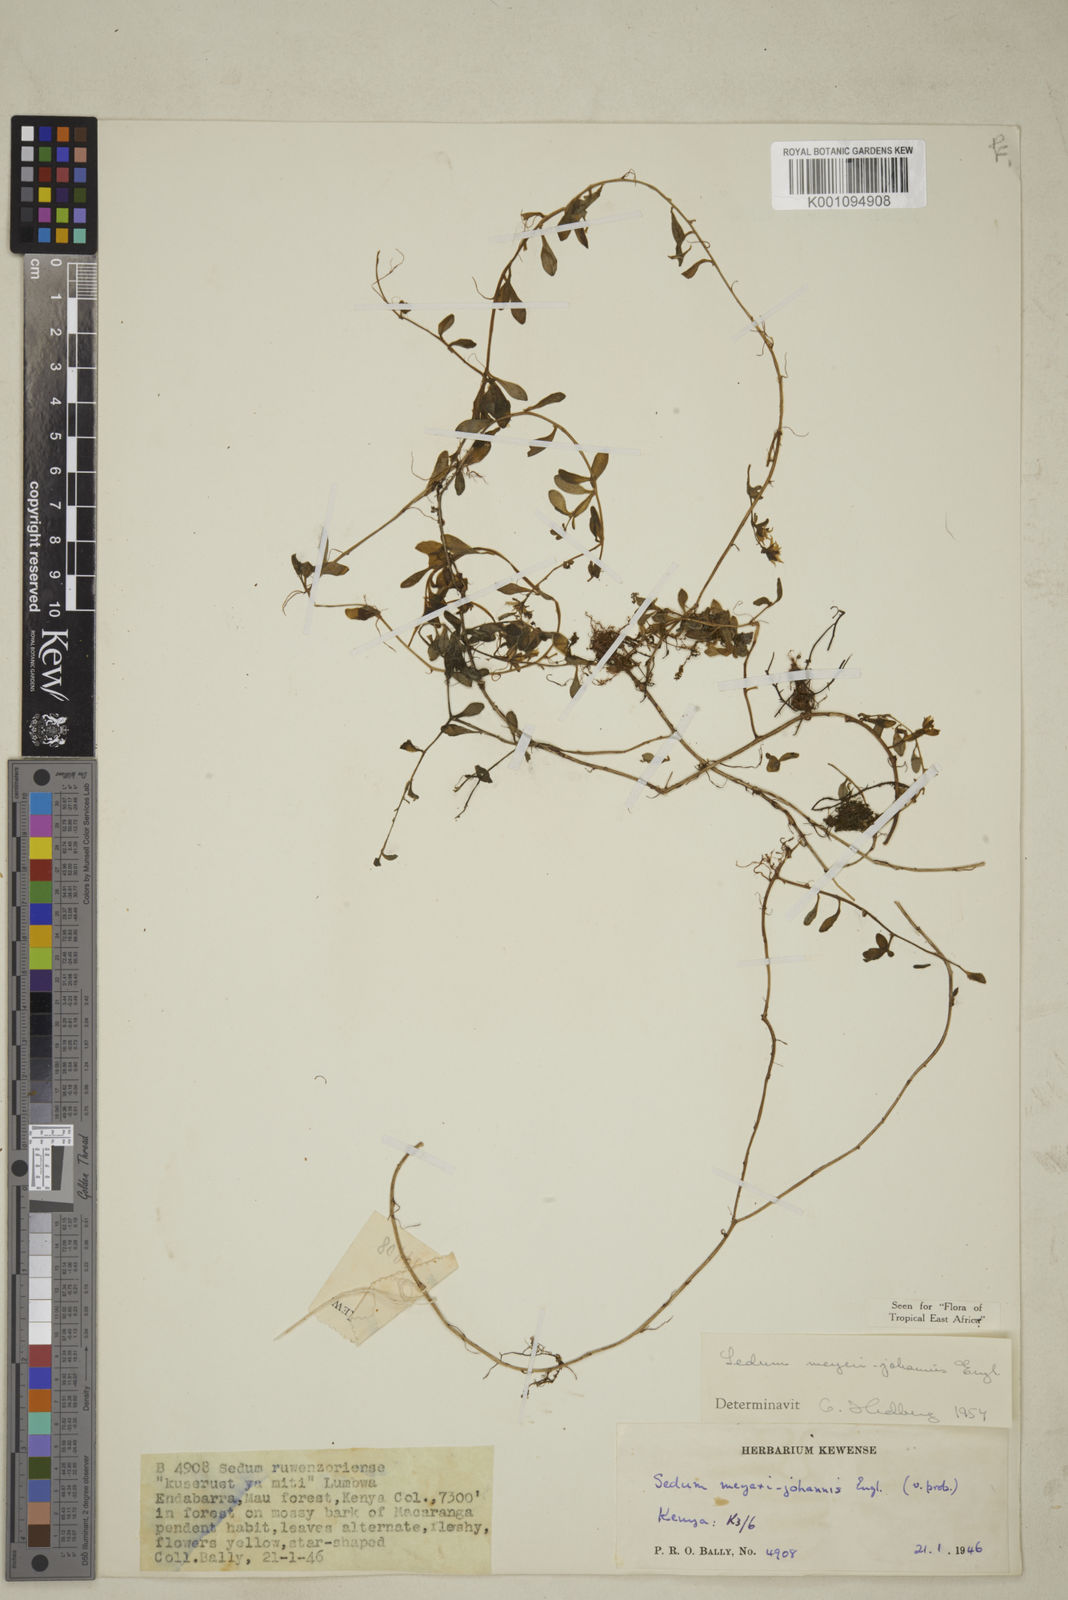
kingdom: Plantae
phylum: Tracheophyta
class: Magnoliopsida
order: Saxifragales
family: Crassulaceae
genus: Sedum
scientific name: Sedum meyeri-johannis
